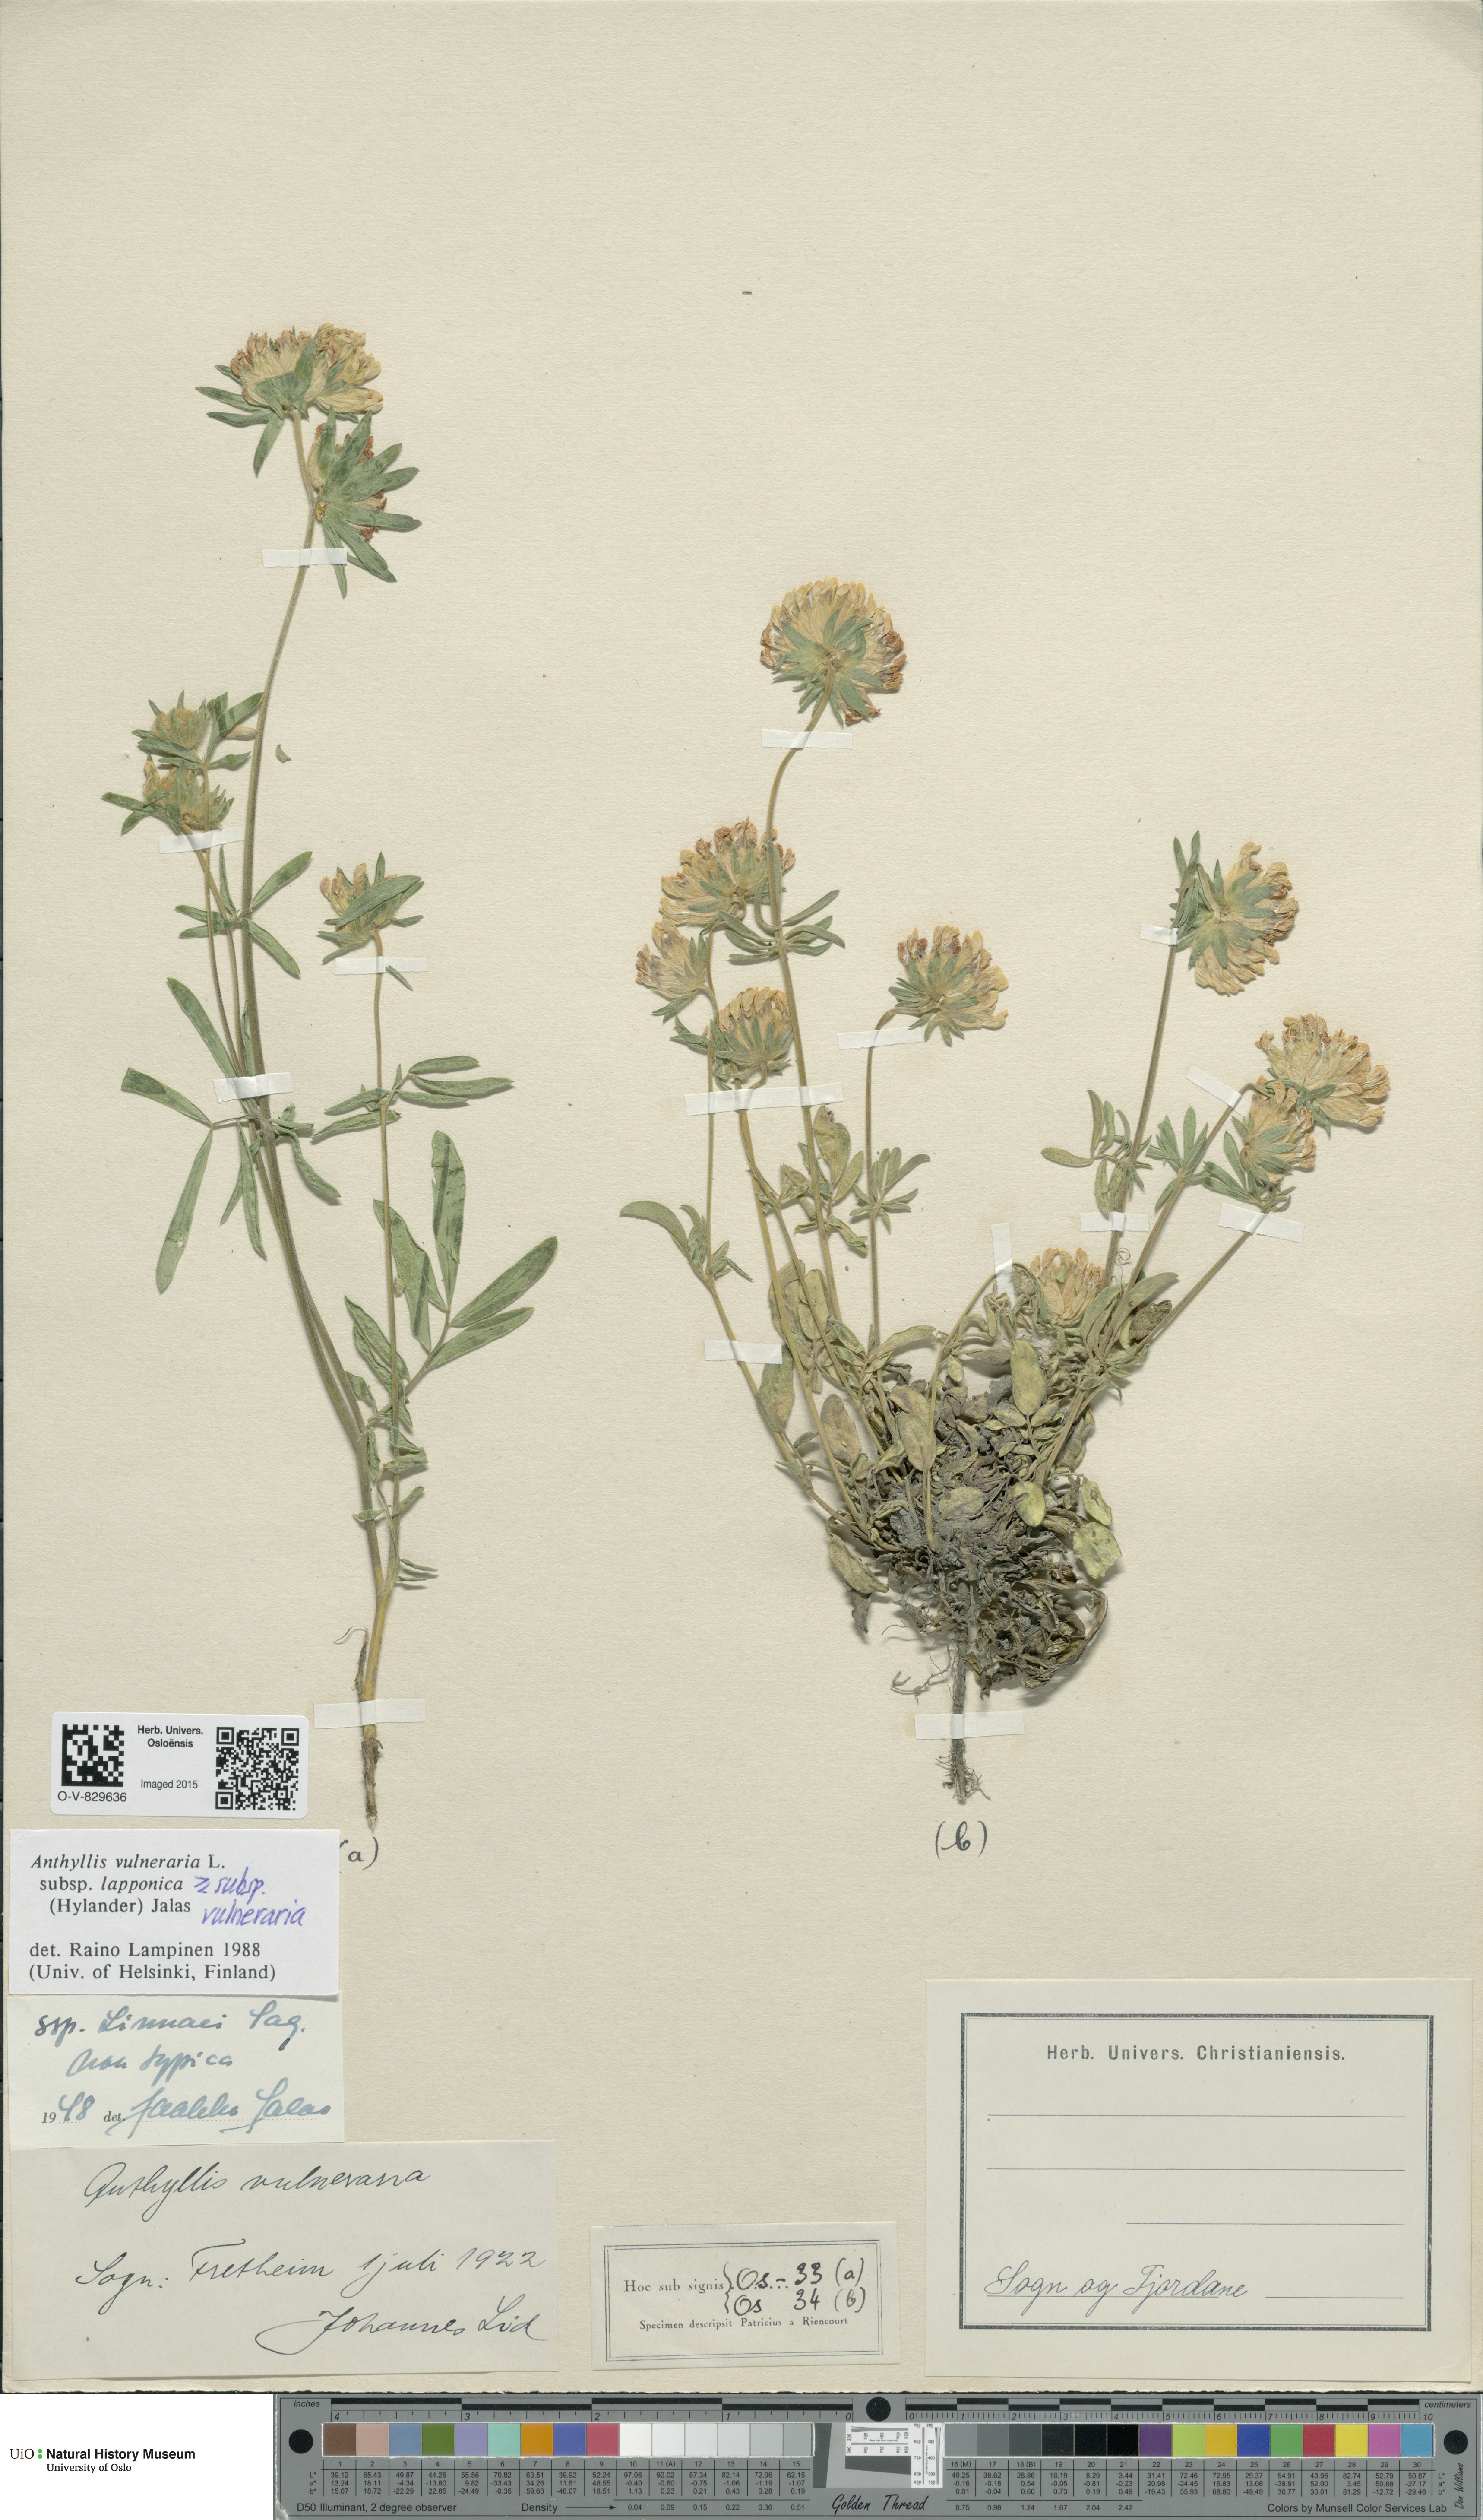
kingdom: Plantae
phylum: Tracheophyta
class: Magnoliopsida
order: Fabales
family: Fabaceae
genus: Anthyllis
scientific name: Anthyllis
